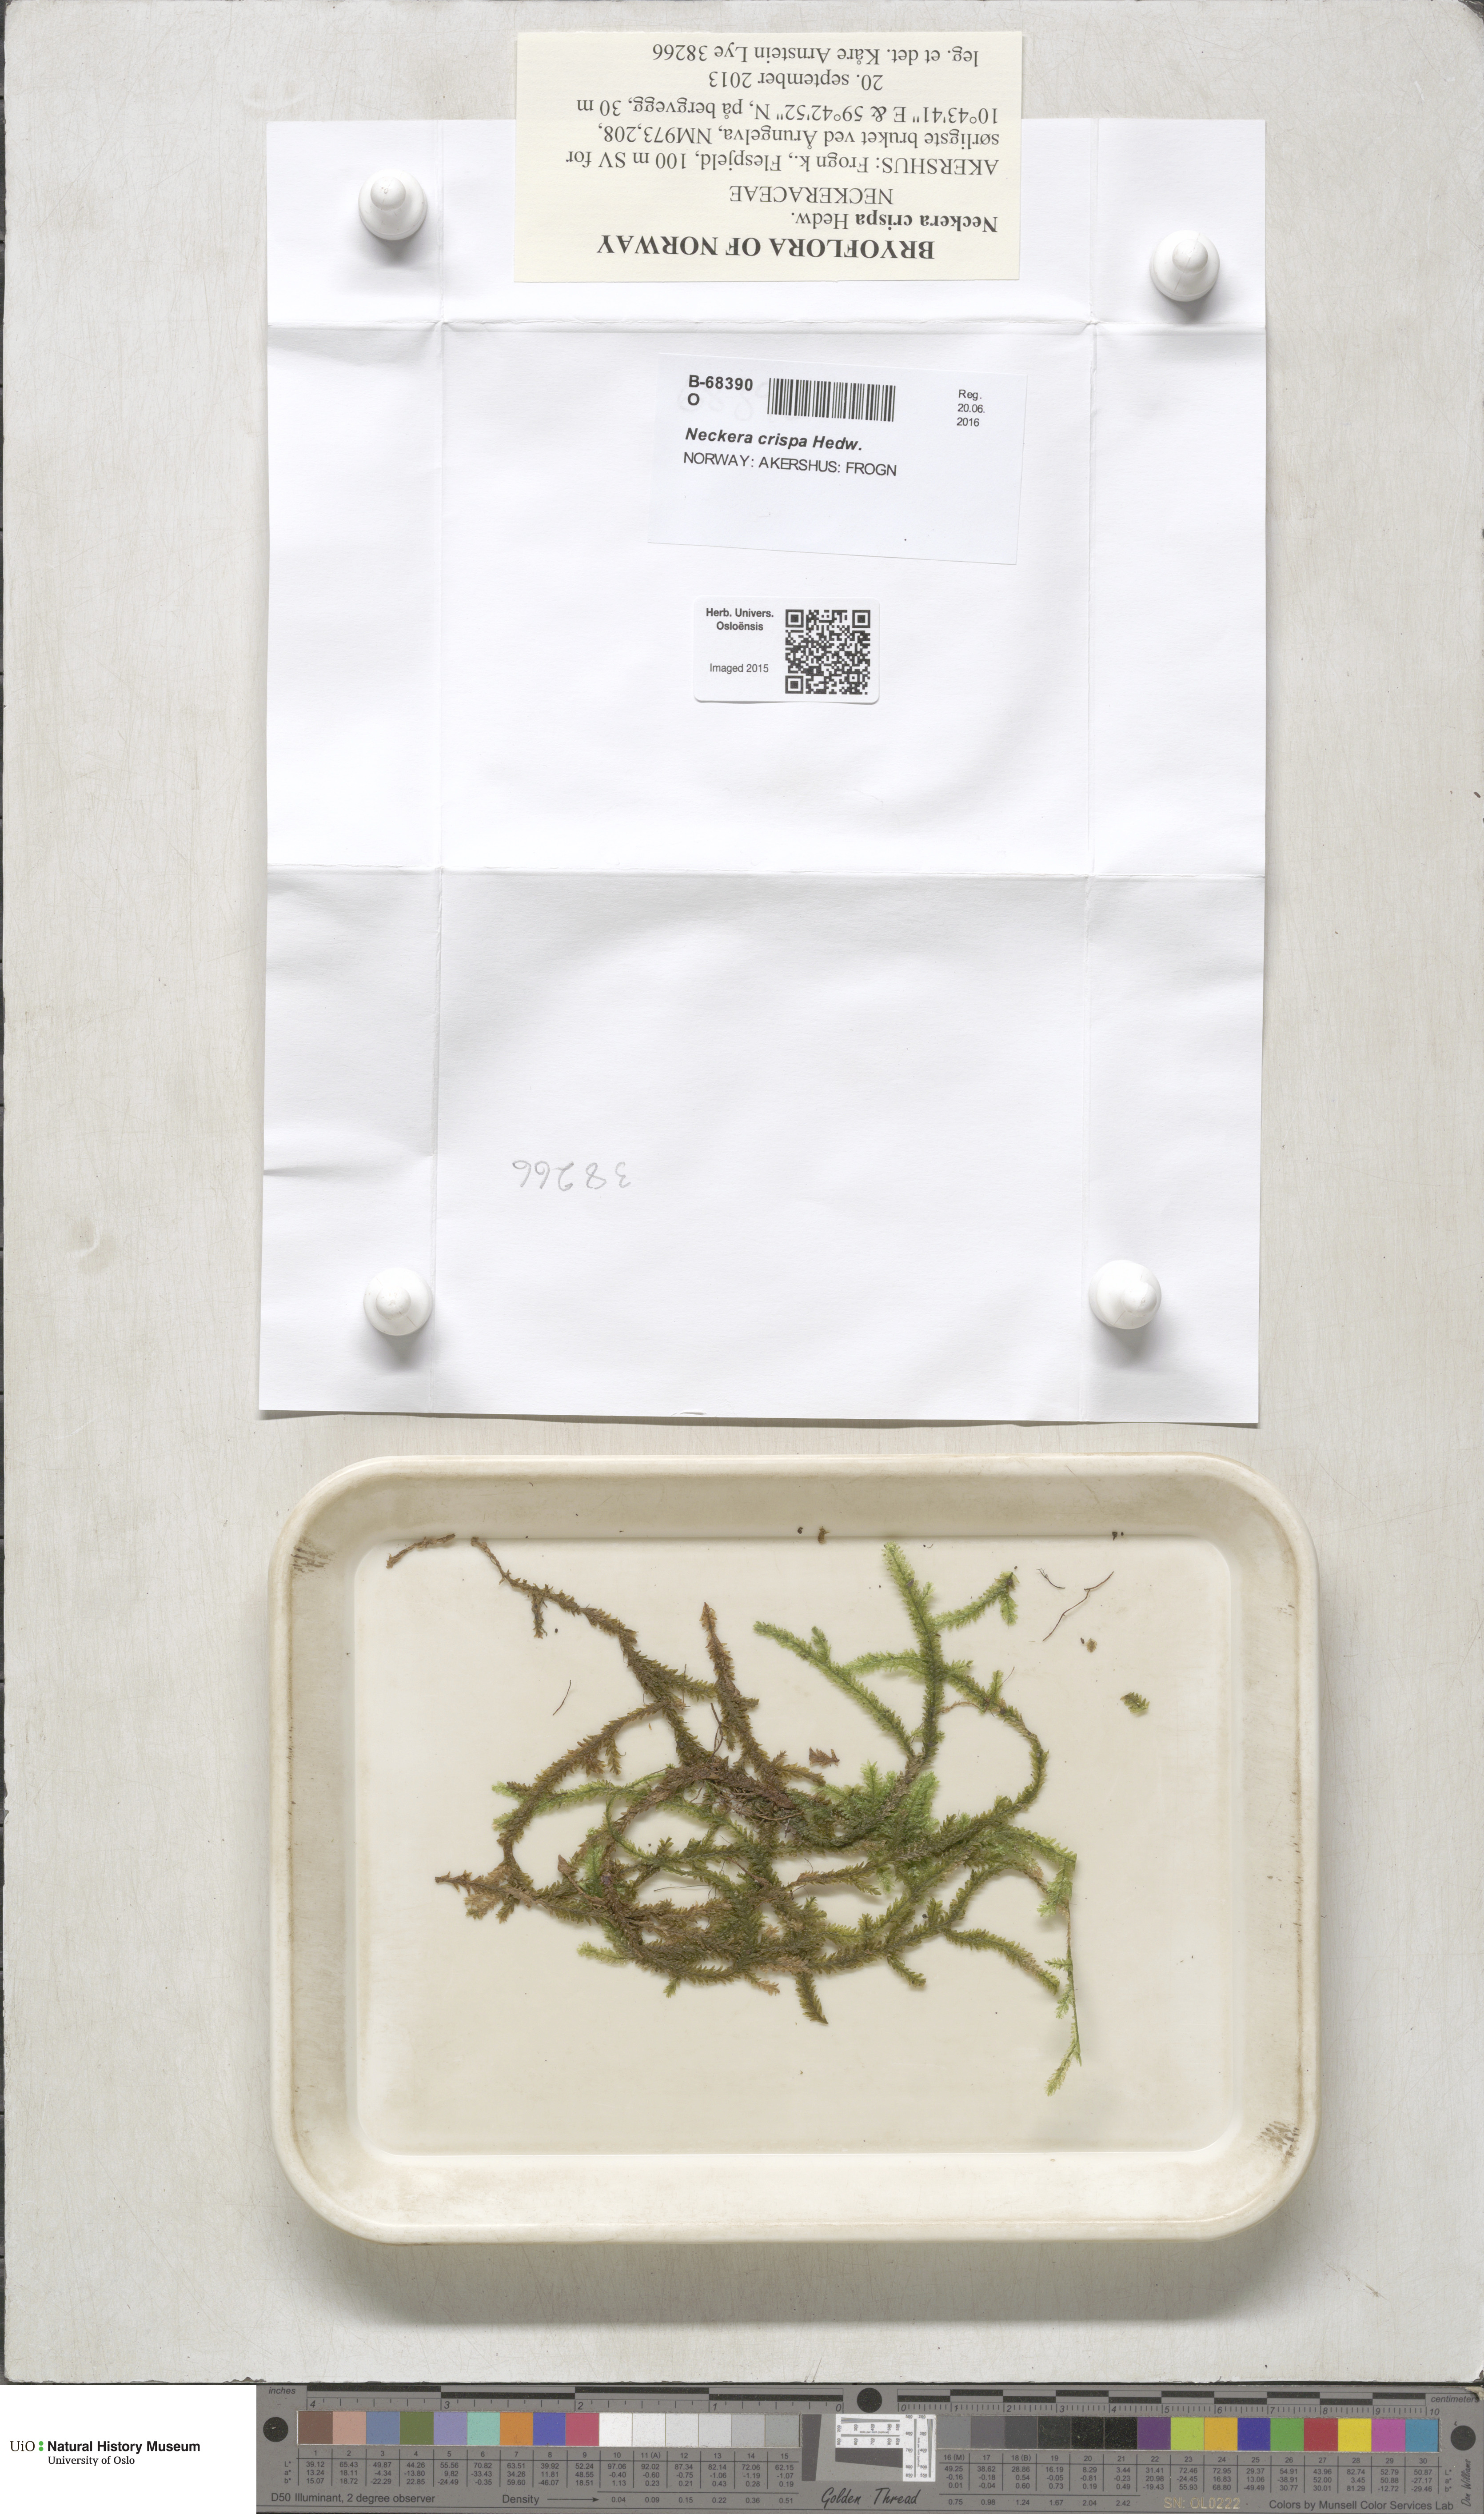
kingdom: Plantae
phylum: Bryophyta
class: Bryopsida
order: Hypnales
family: Neckeraceae
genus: Exsertotheca
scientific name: Exsertotheca crispa
